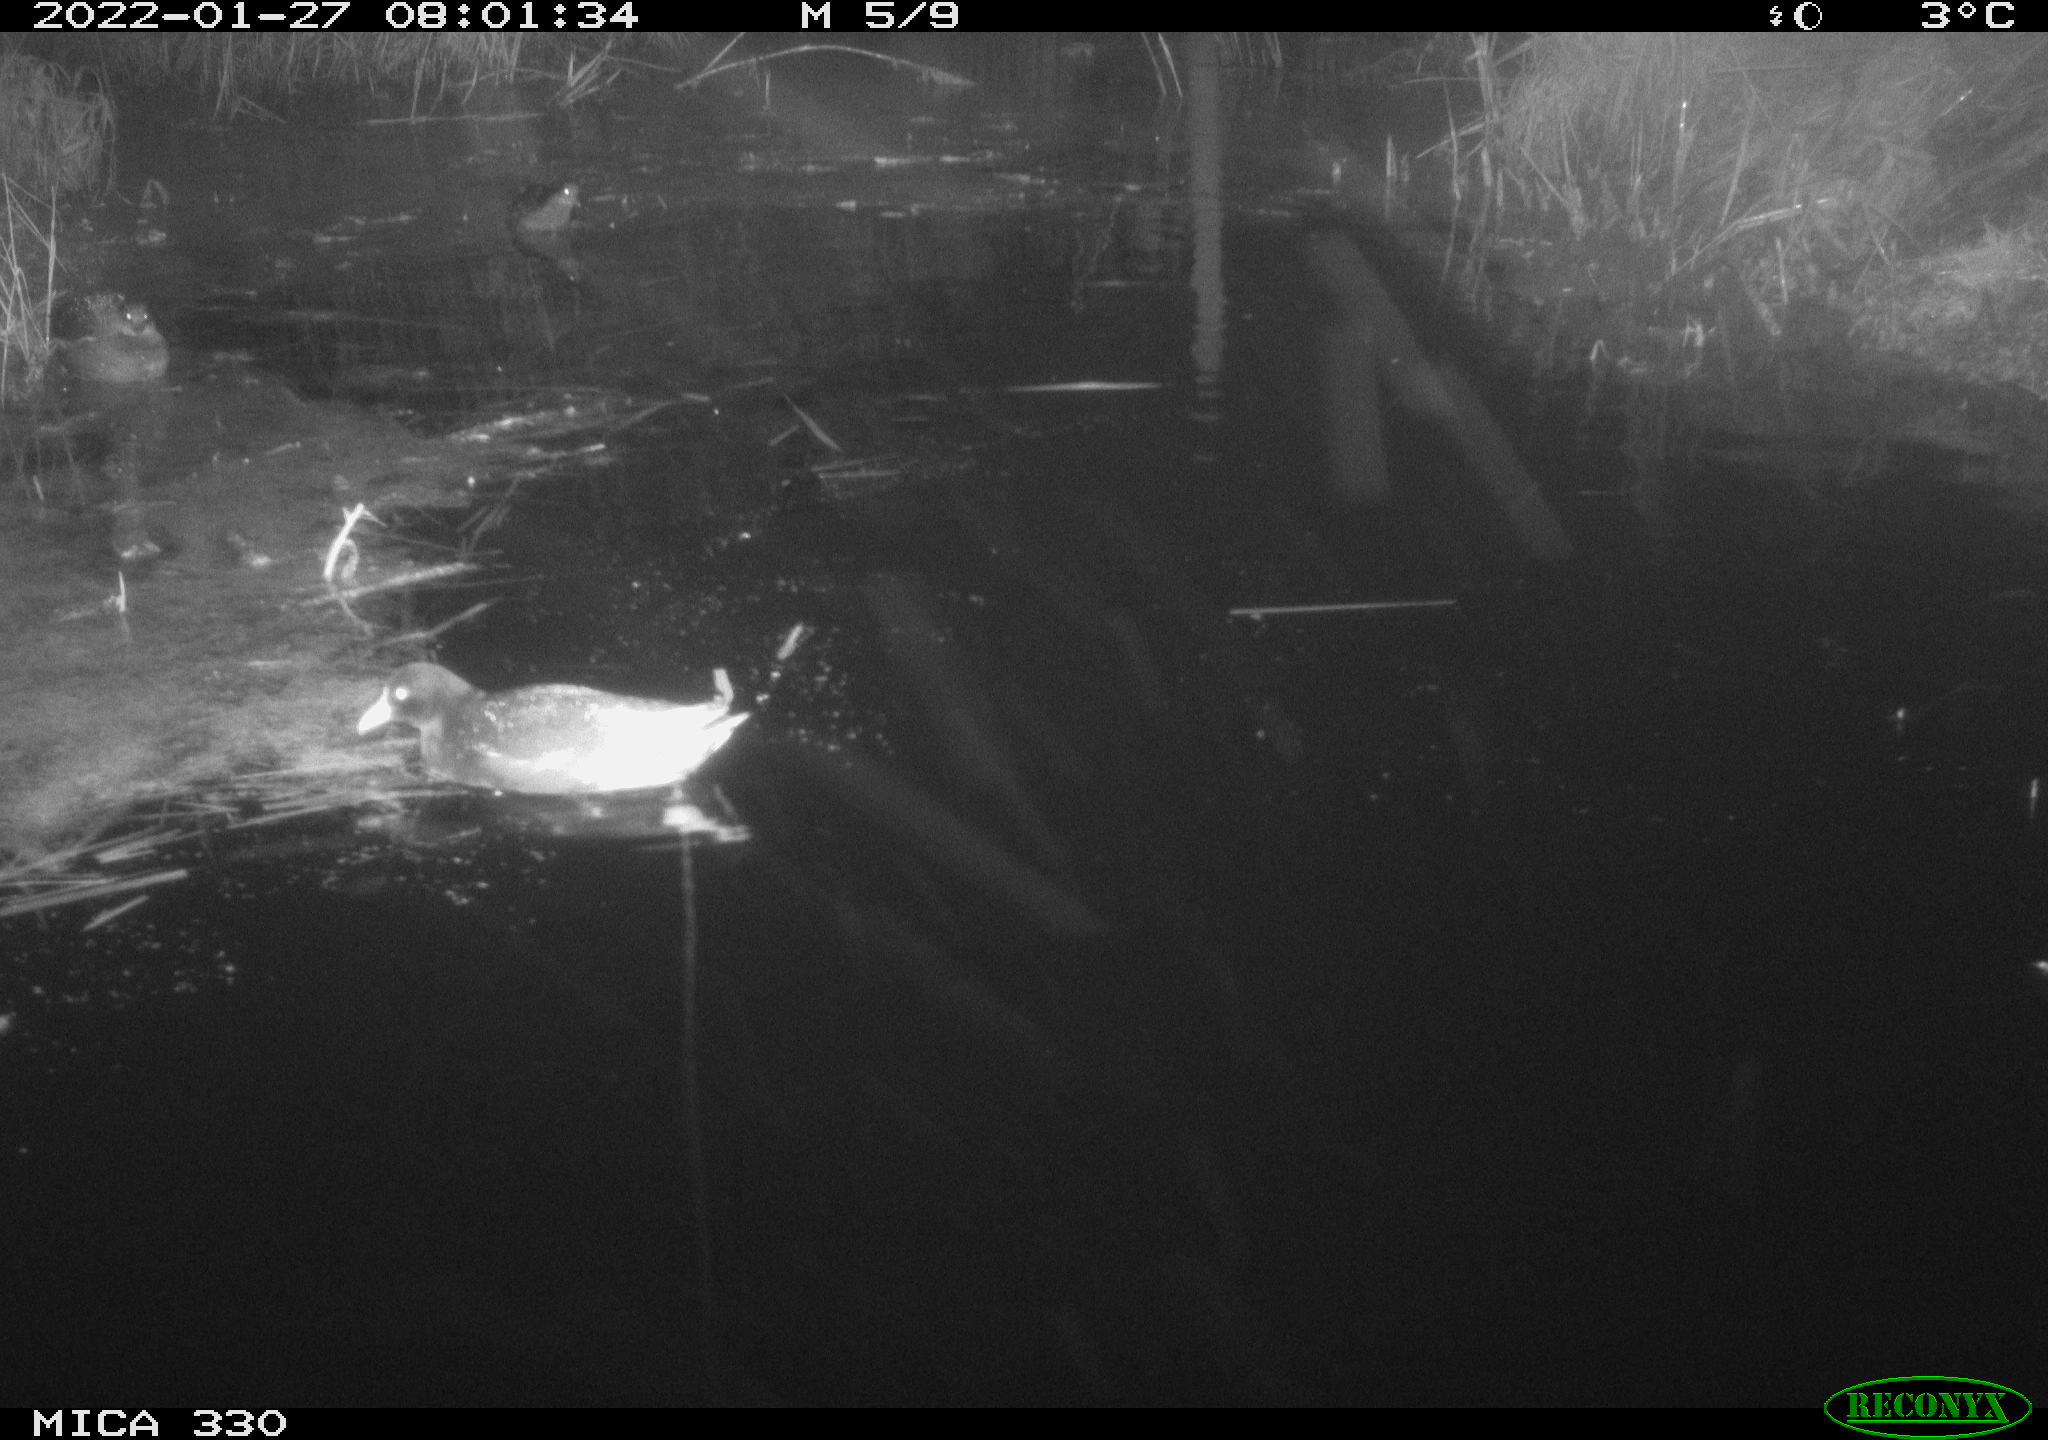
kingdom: Animalia
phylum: Chordata
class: Aves
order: Gruiformes
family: Rallidae
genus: Gallinula
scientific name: Gallinula chloropus
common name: Common moorhen
